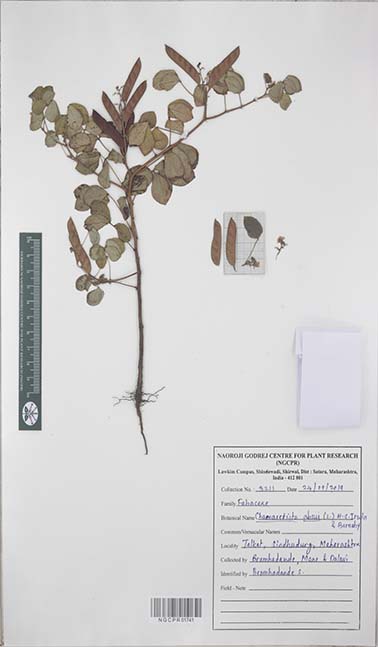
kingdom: Plantae
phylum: Tracheophyta
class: Magnoliopsida
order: Fabales
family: Fabaceae
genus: Chamaecrista
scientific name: Chamaecrista absus
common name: Tropical sensitive pea
